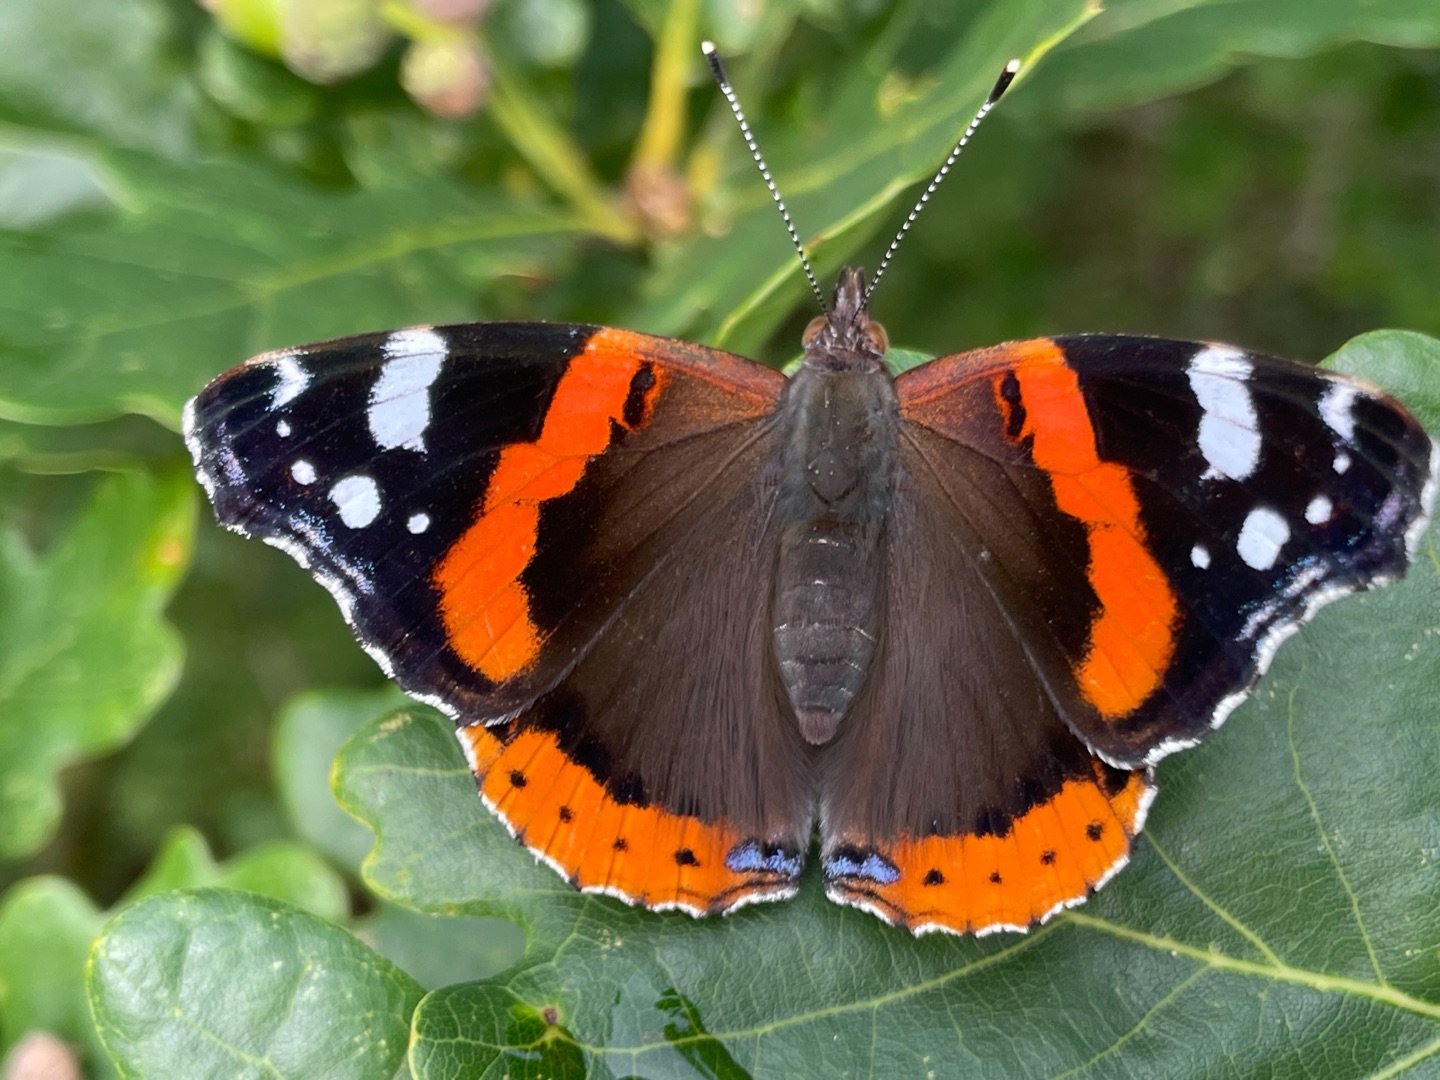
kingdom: Animalia
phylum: Arthropoda
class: Insecta
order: Lepidoptera
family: Nymphalidae
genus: Vanessa
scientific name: Vanessa atalanta
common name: Admiral
